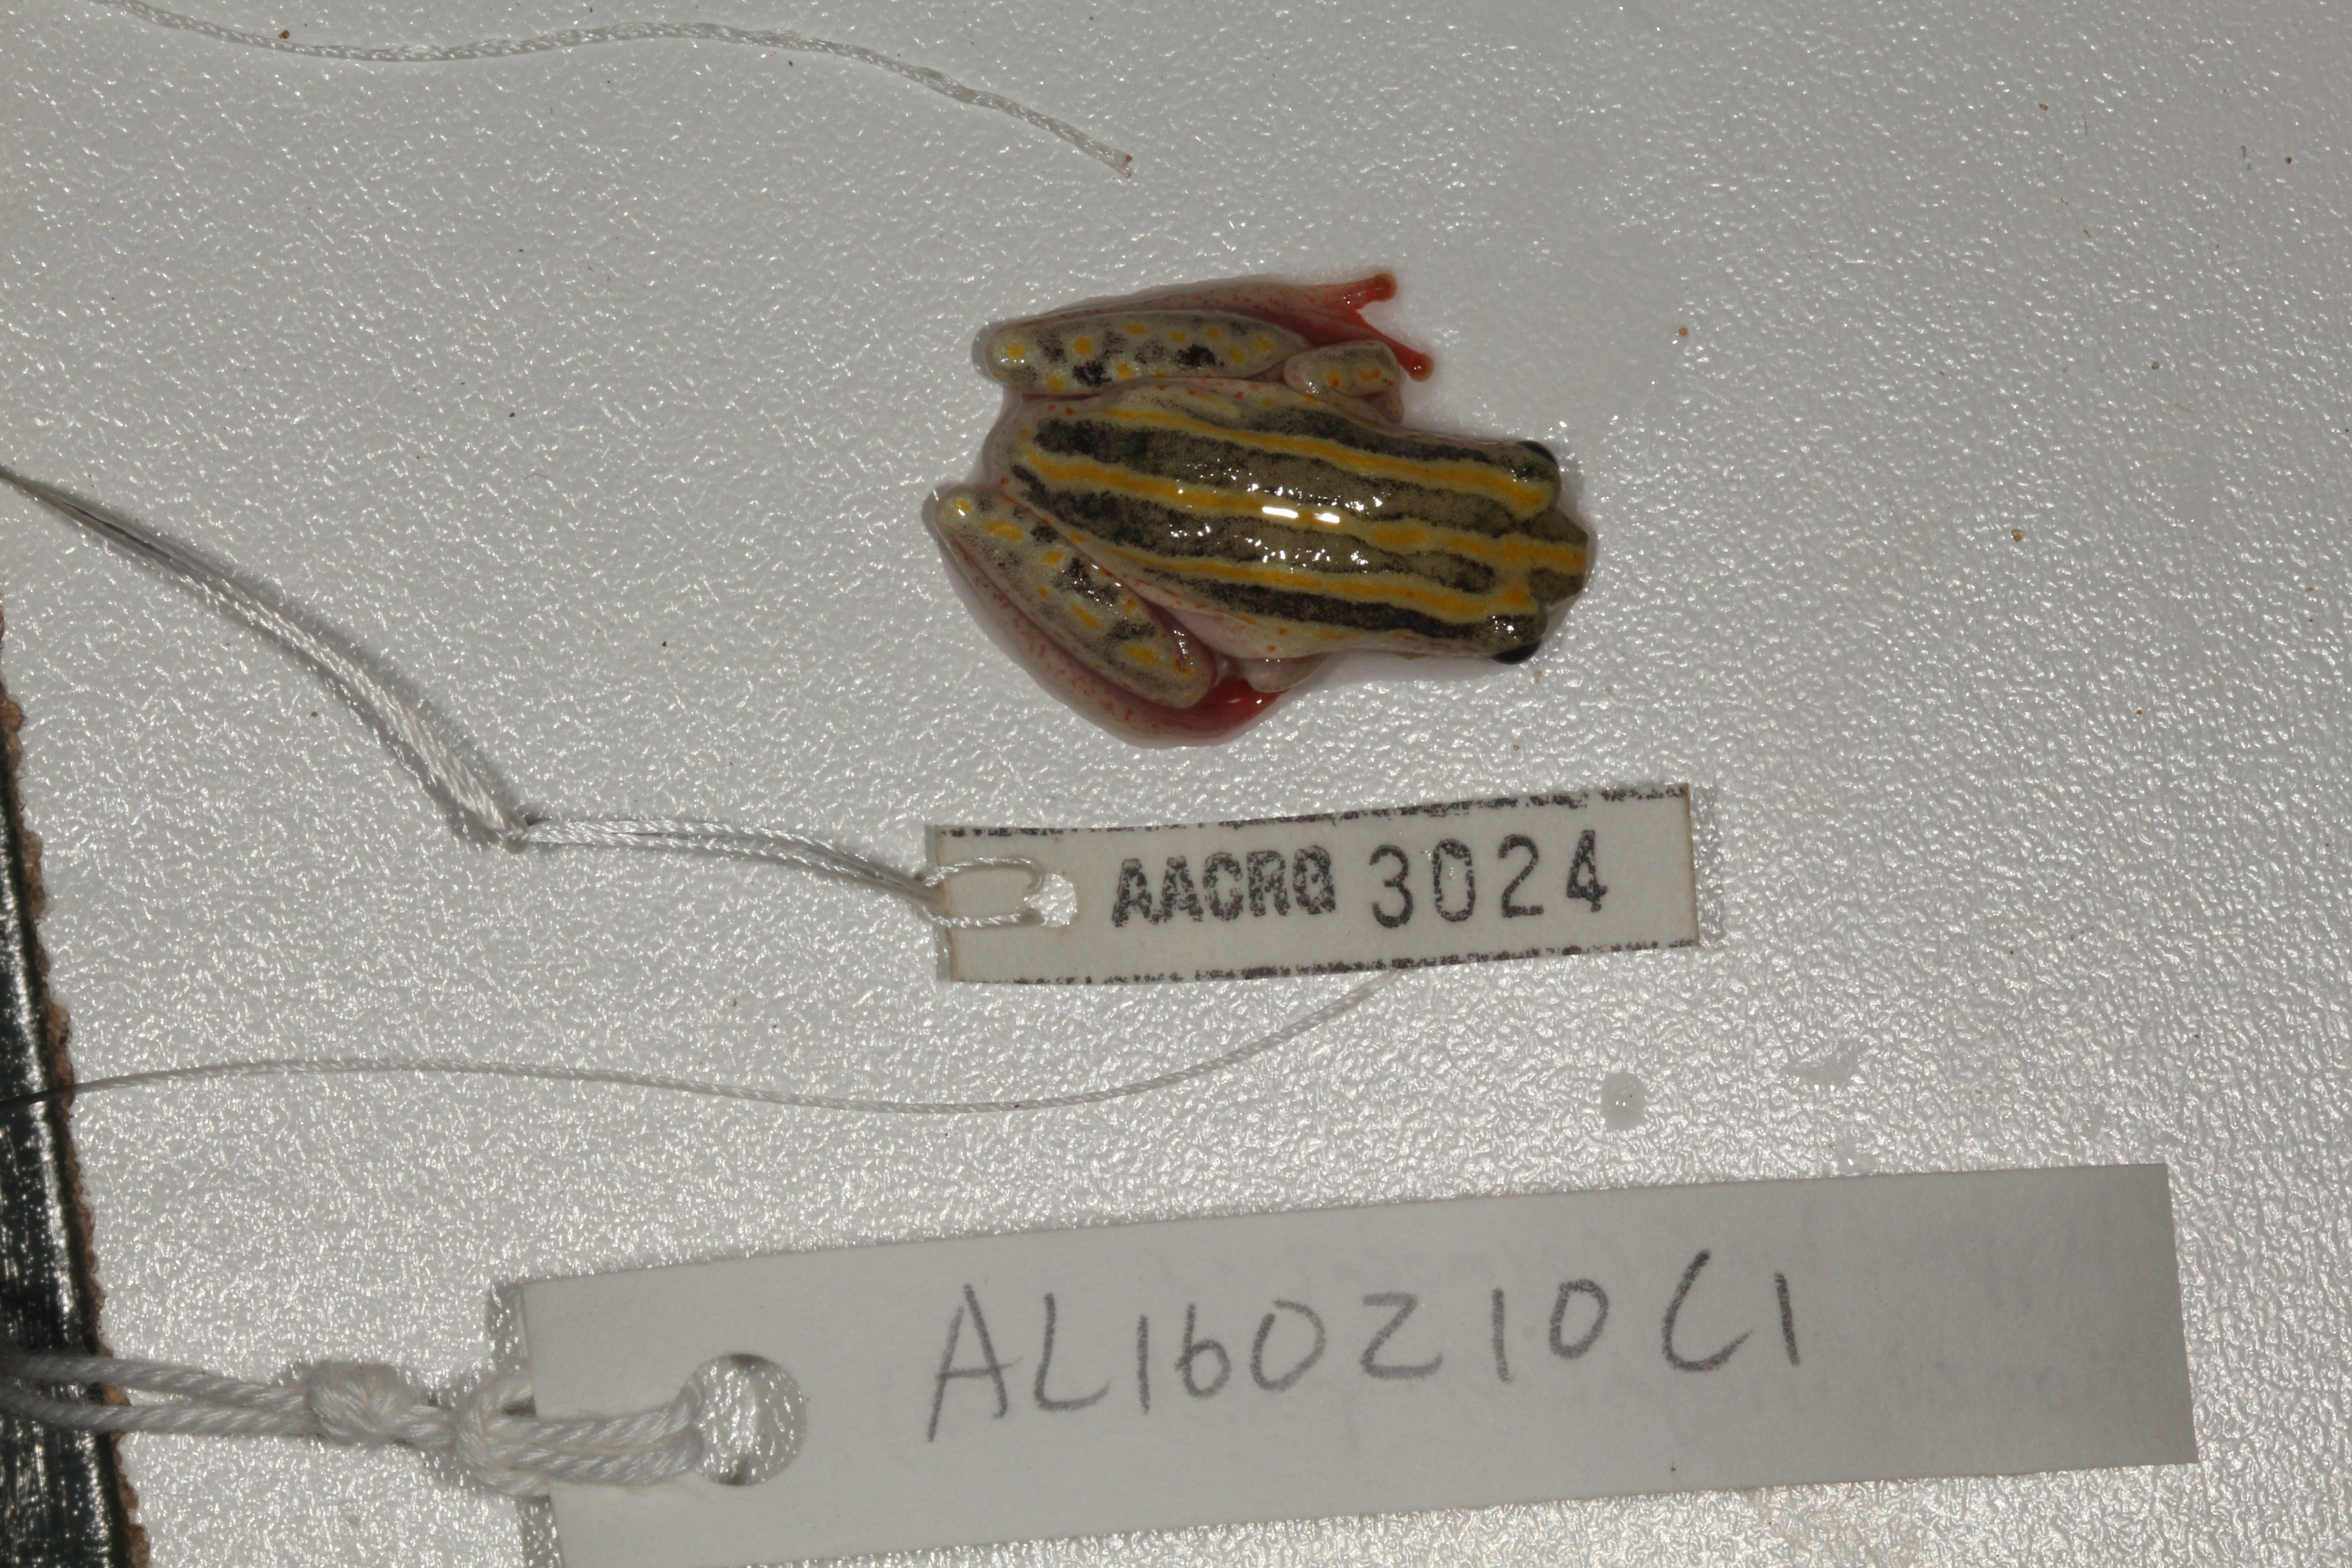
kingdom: Animalia
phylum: Chordata
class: Amphibia
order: Anura
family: Hyperoliidae
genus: Hyperolius
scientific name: Hyperolius marmoratus
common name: Painted reed frog
